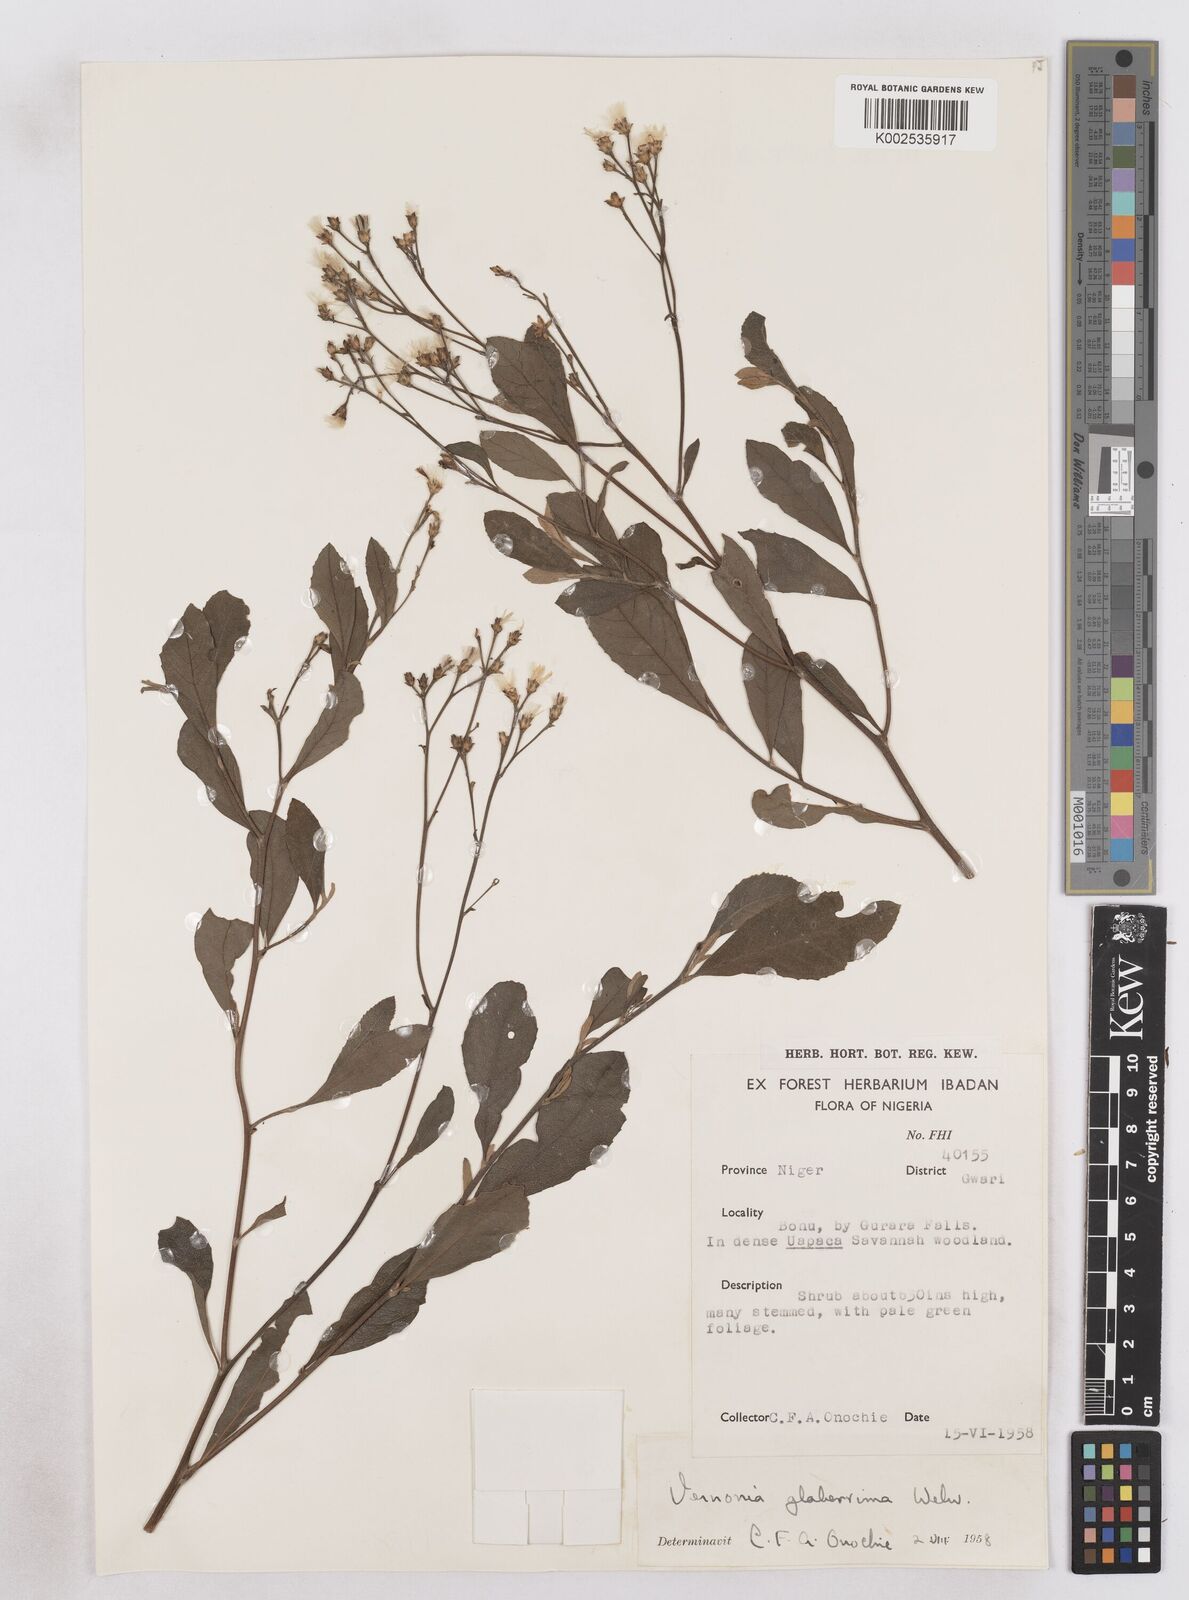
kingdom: Plantae
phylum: Tracheophyta
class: Magnoliopsida
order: Asterales
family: Asteraceae
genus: Gymnanthemum
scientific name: Gymnanthemum glaberrimum
